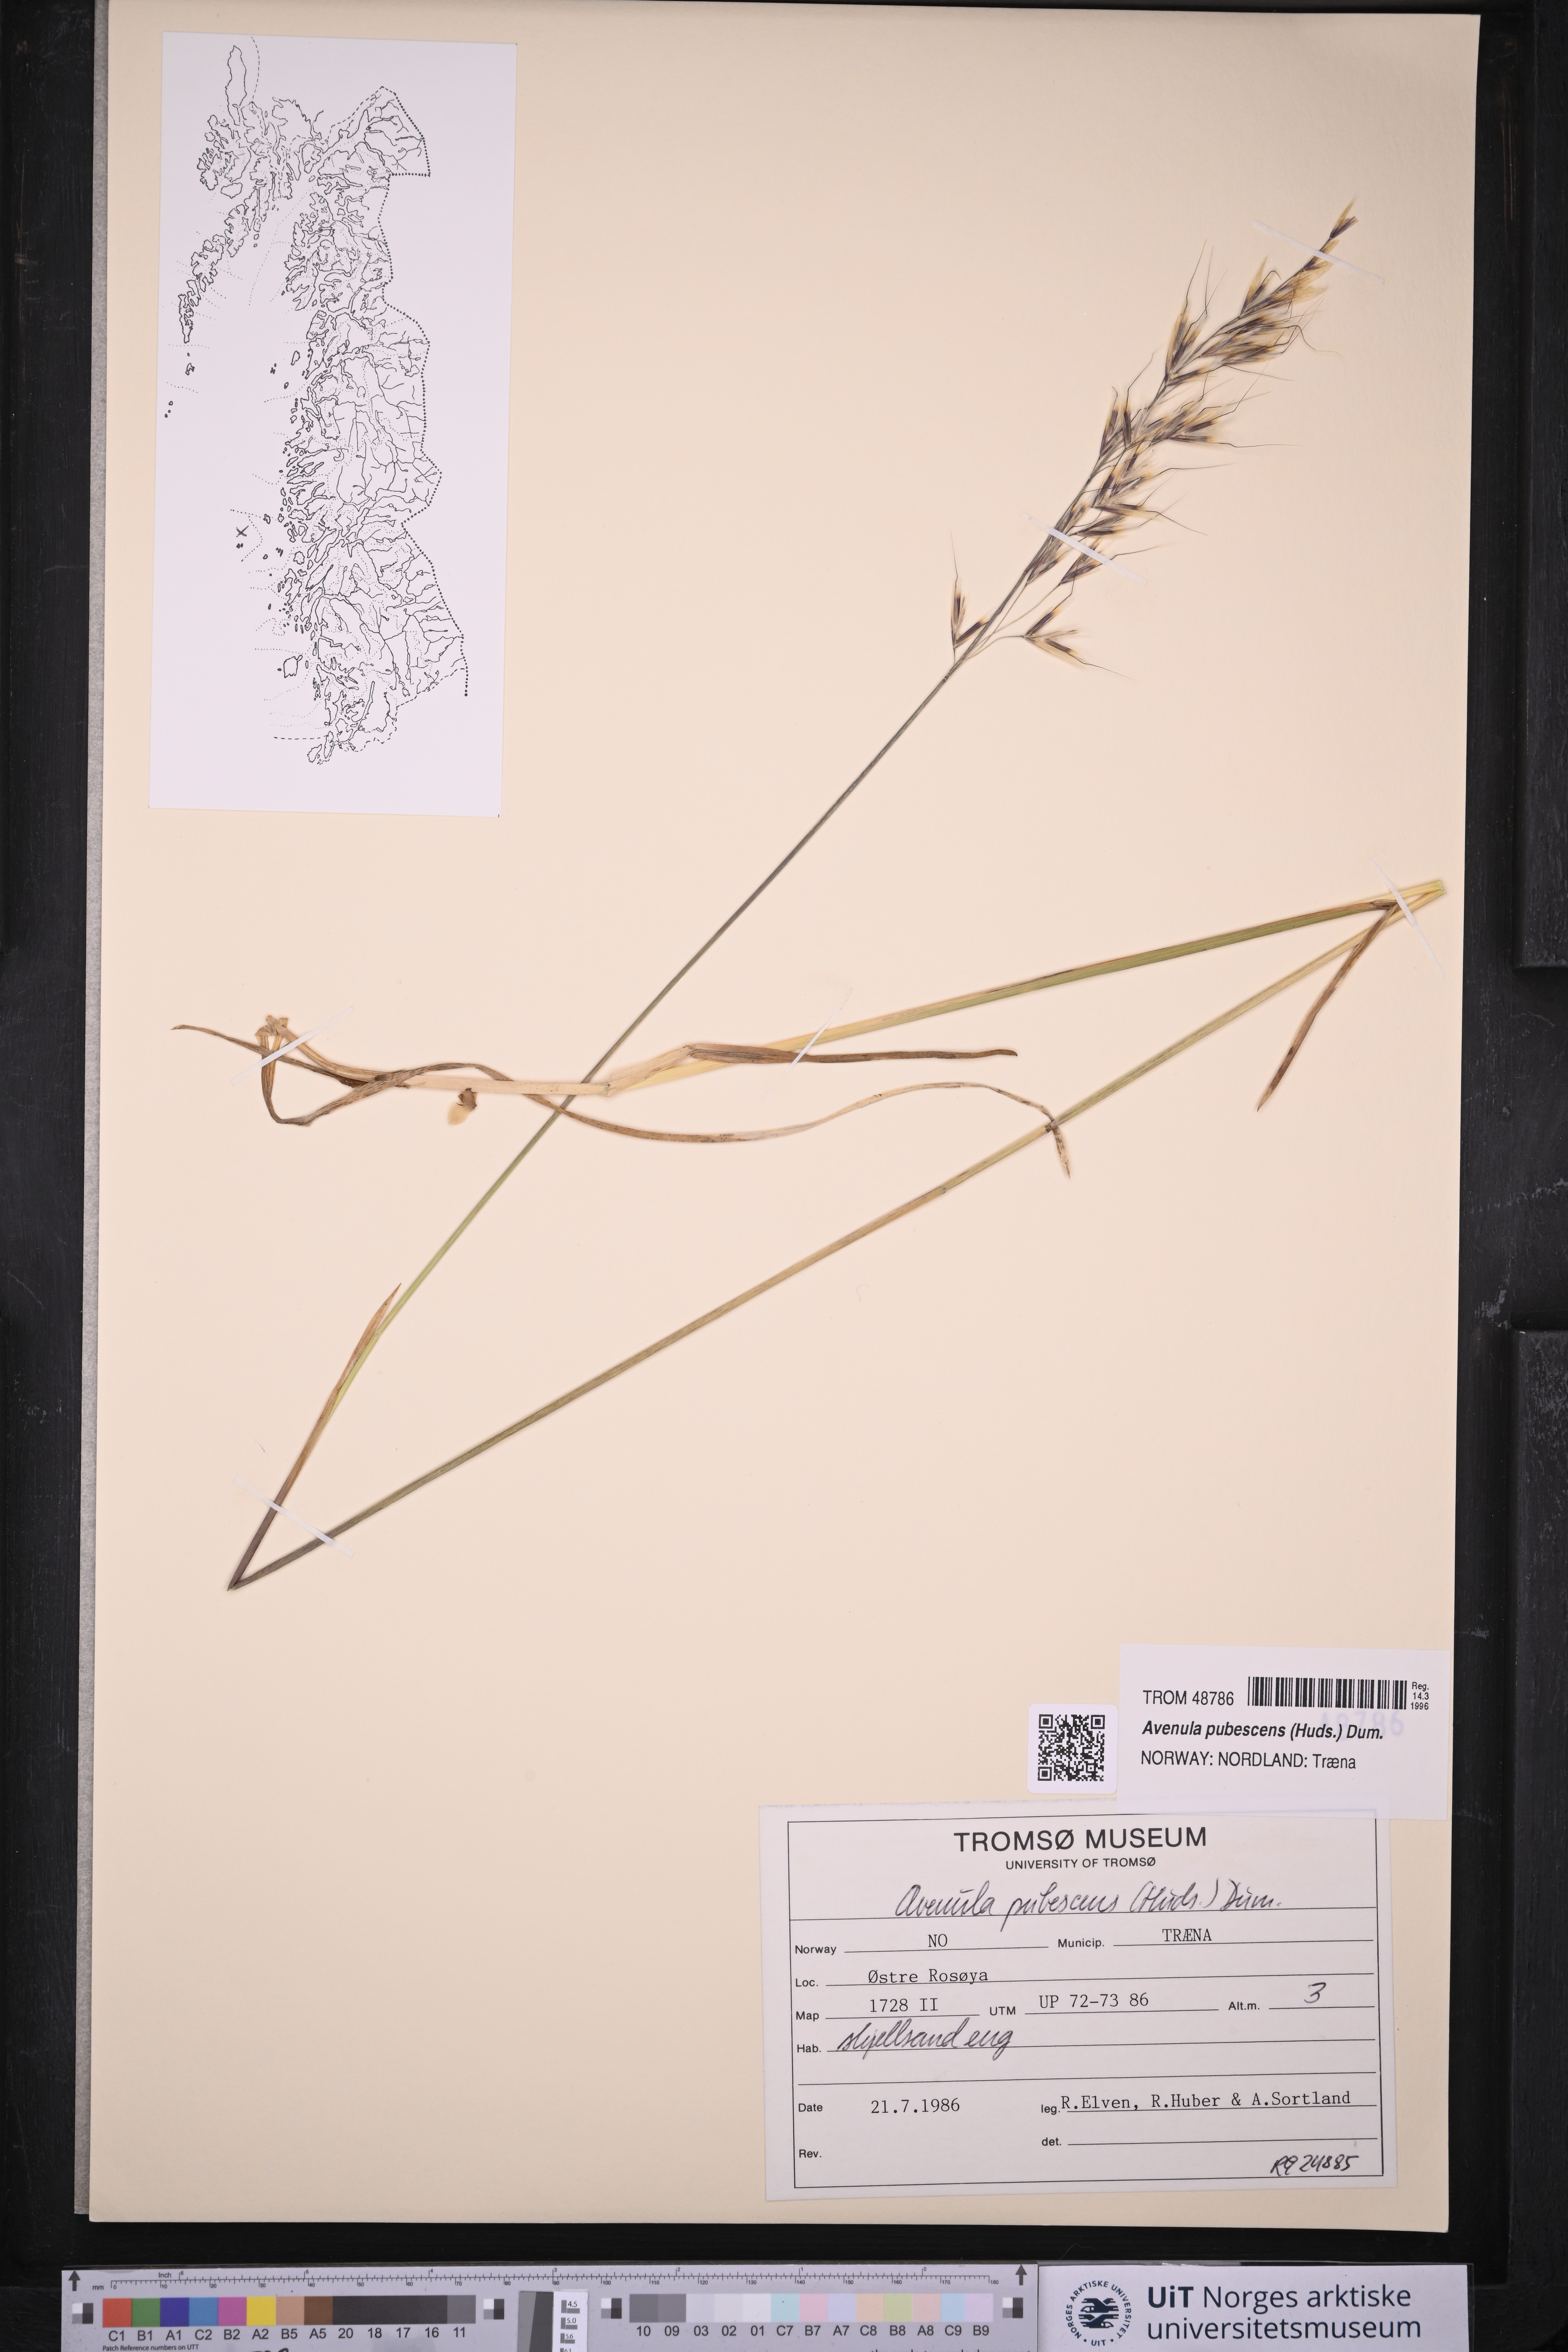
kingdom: Plantae
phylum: Tracheophyta
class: Liliopsida
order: Poales
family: Poaceae
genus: Avenula
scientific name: Avenula pubescens
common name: Downy alpine oatgrass
